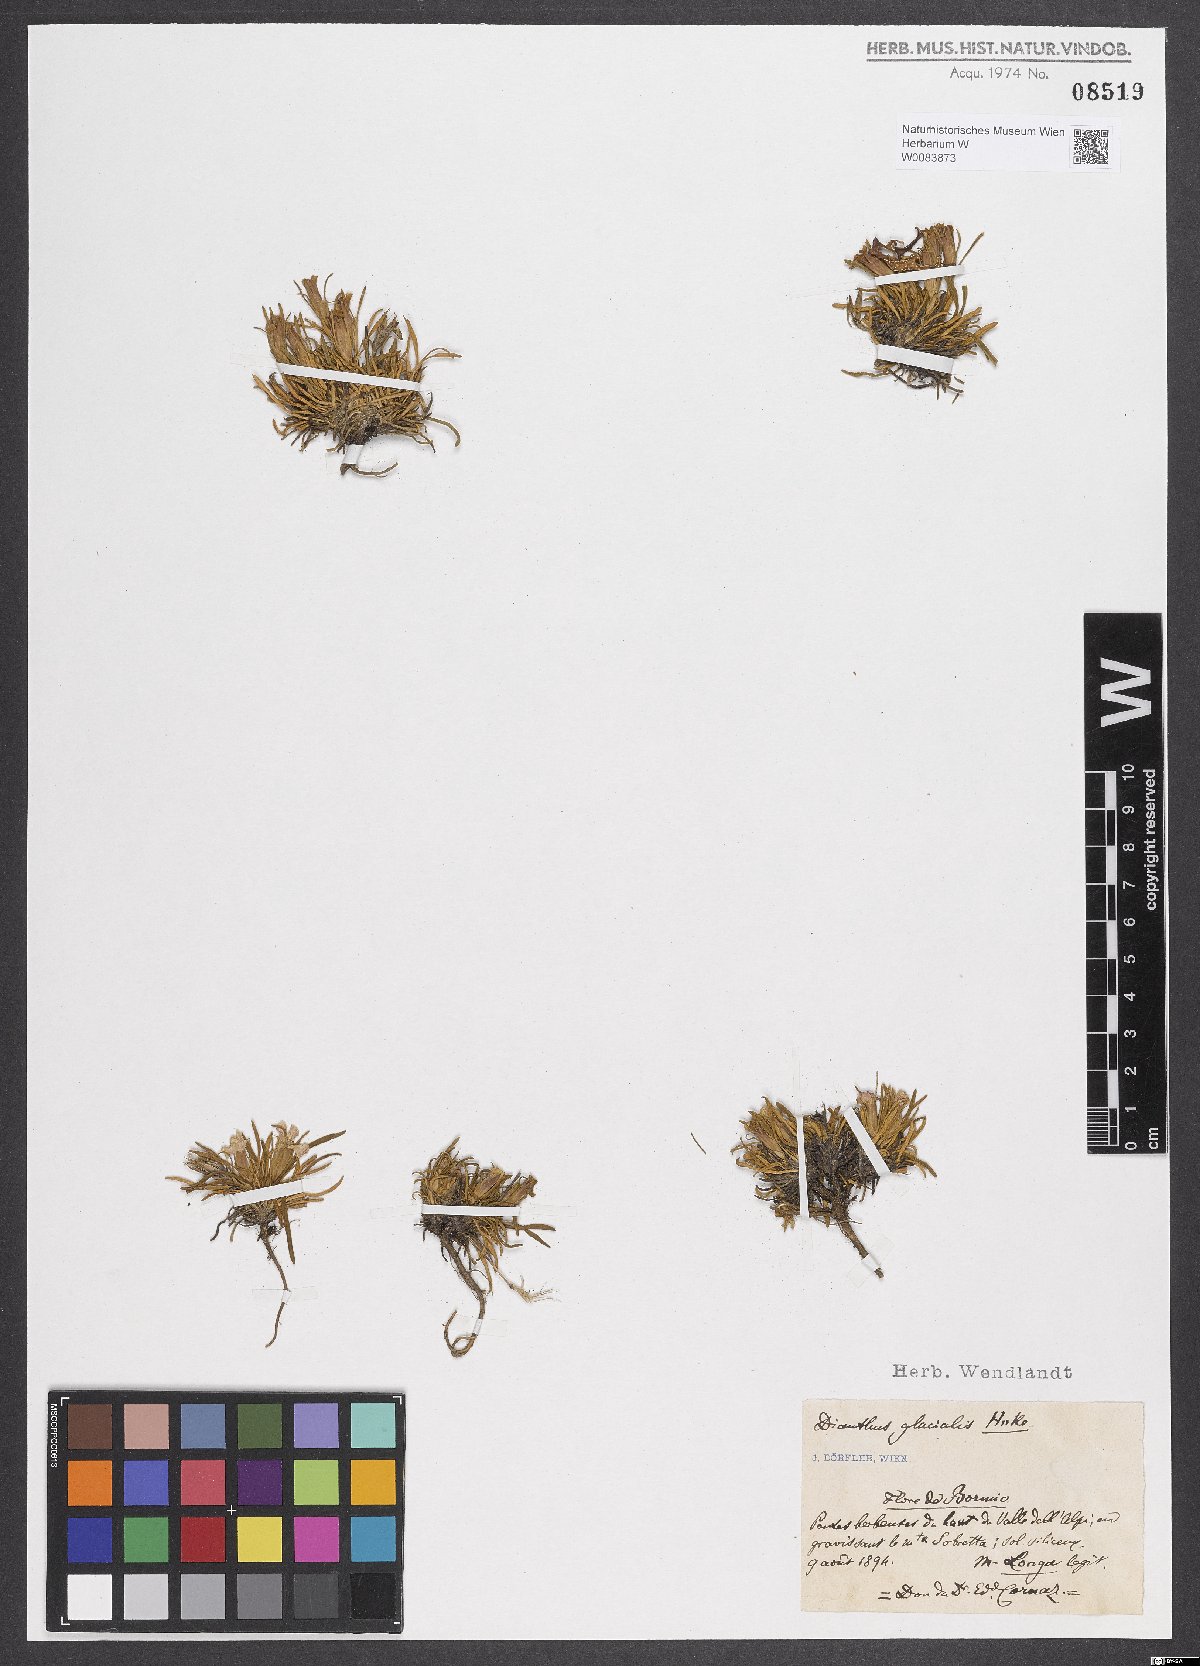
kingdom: Plantae
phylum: Tracheophyta
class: Magnoliopsida
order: Caryophyllales
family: Caryophyllaceae
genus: Dianthus
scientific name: Dianthus glacialis
